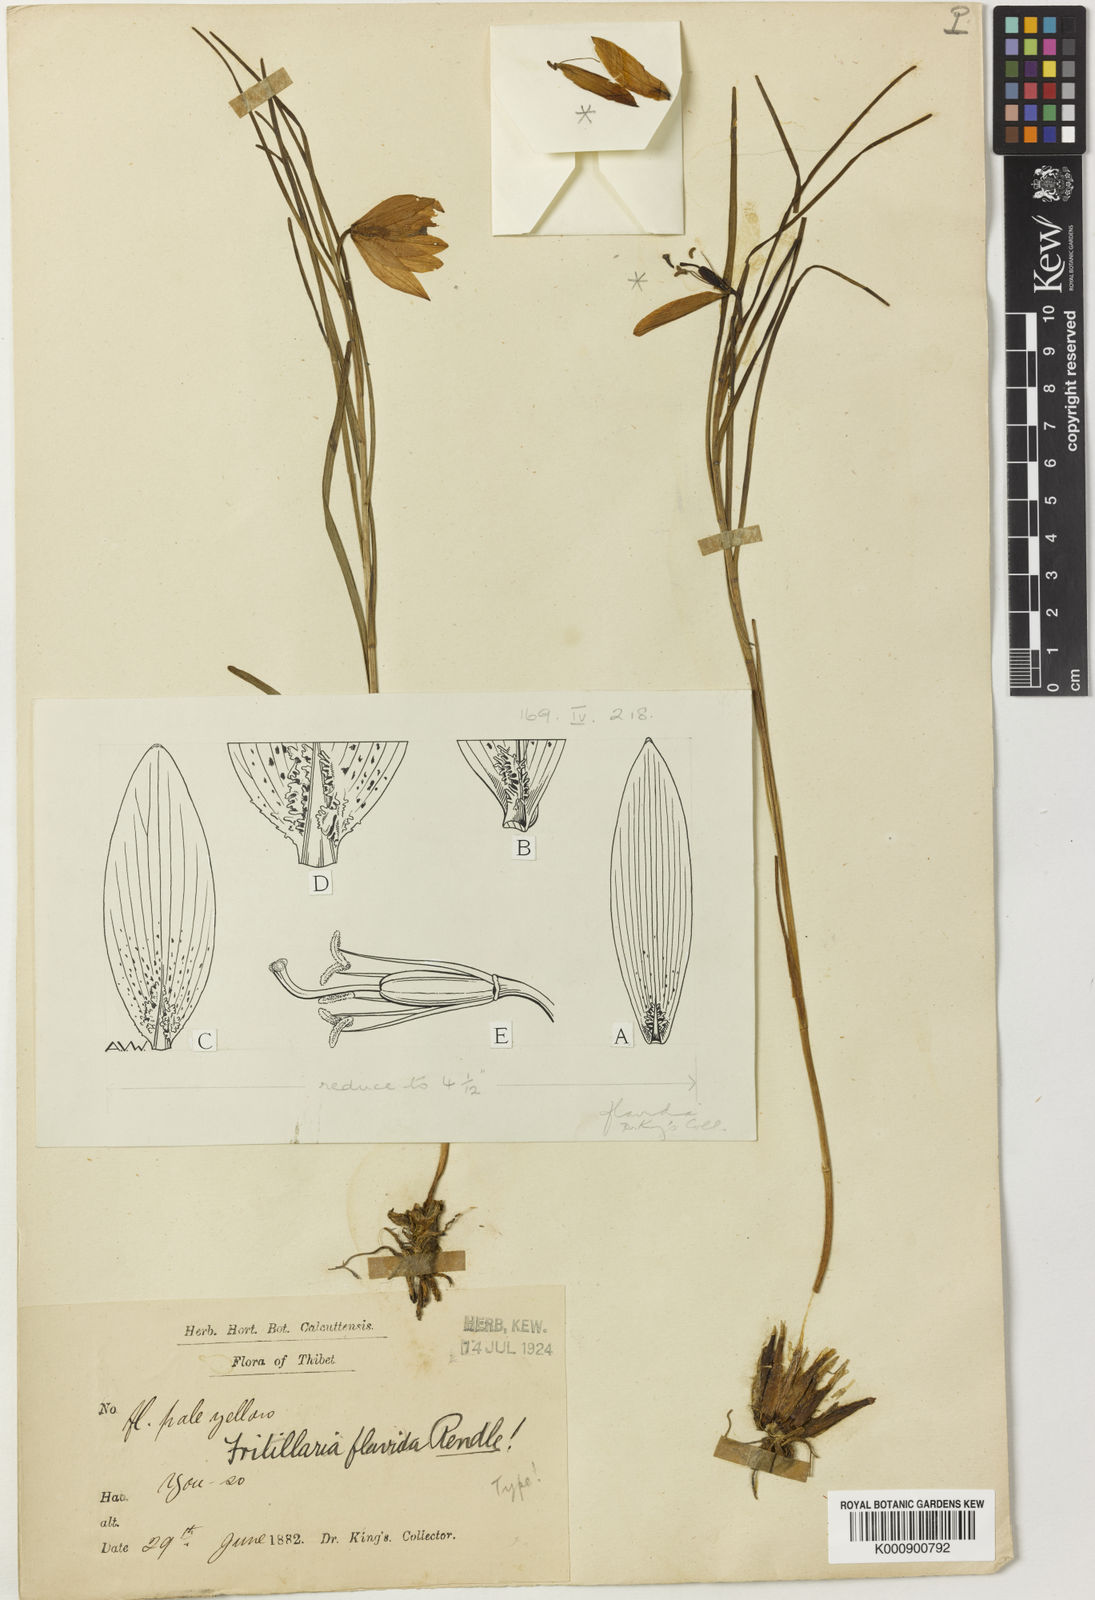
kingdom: Plantae
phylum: Tracheophyta
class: Liliopsida
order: Liliales
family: Liliaceae
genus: Lilium
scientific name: Lilium nanum
